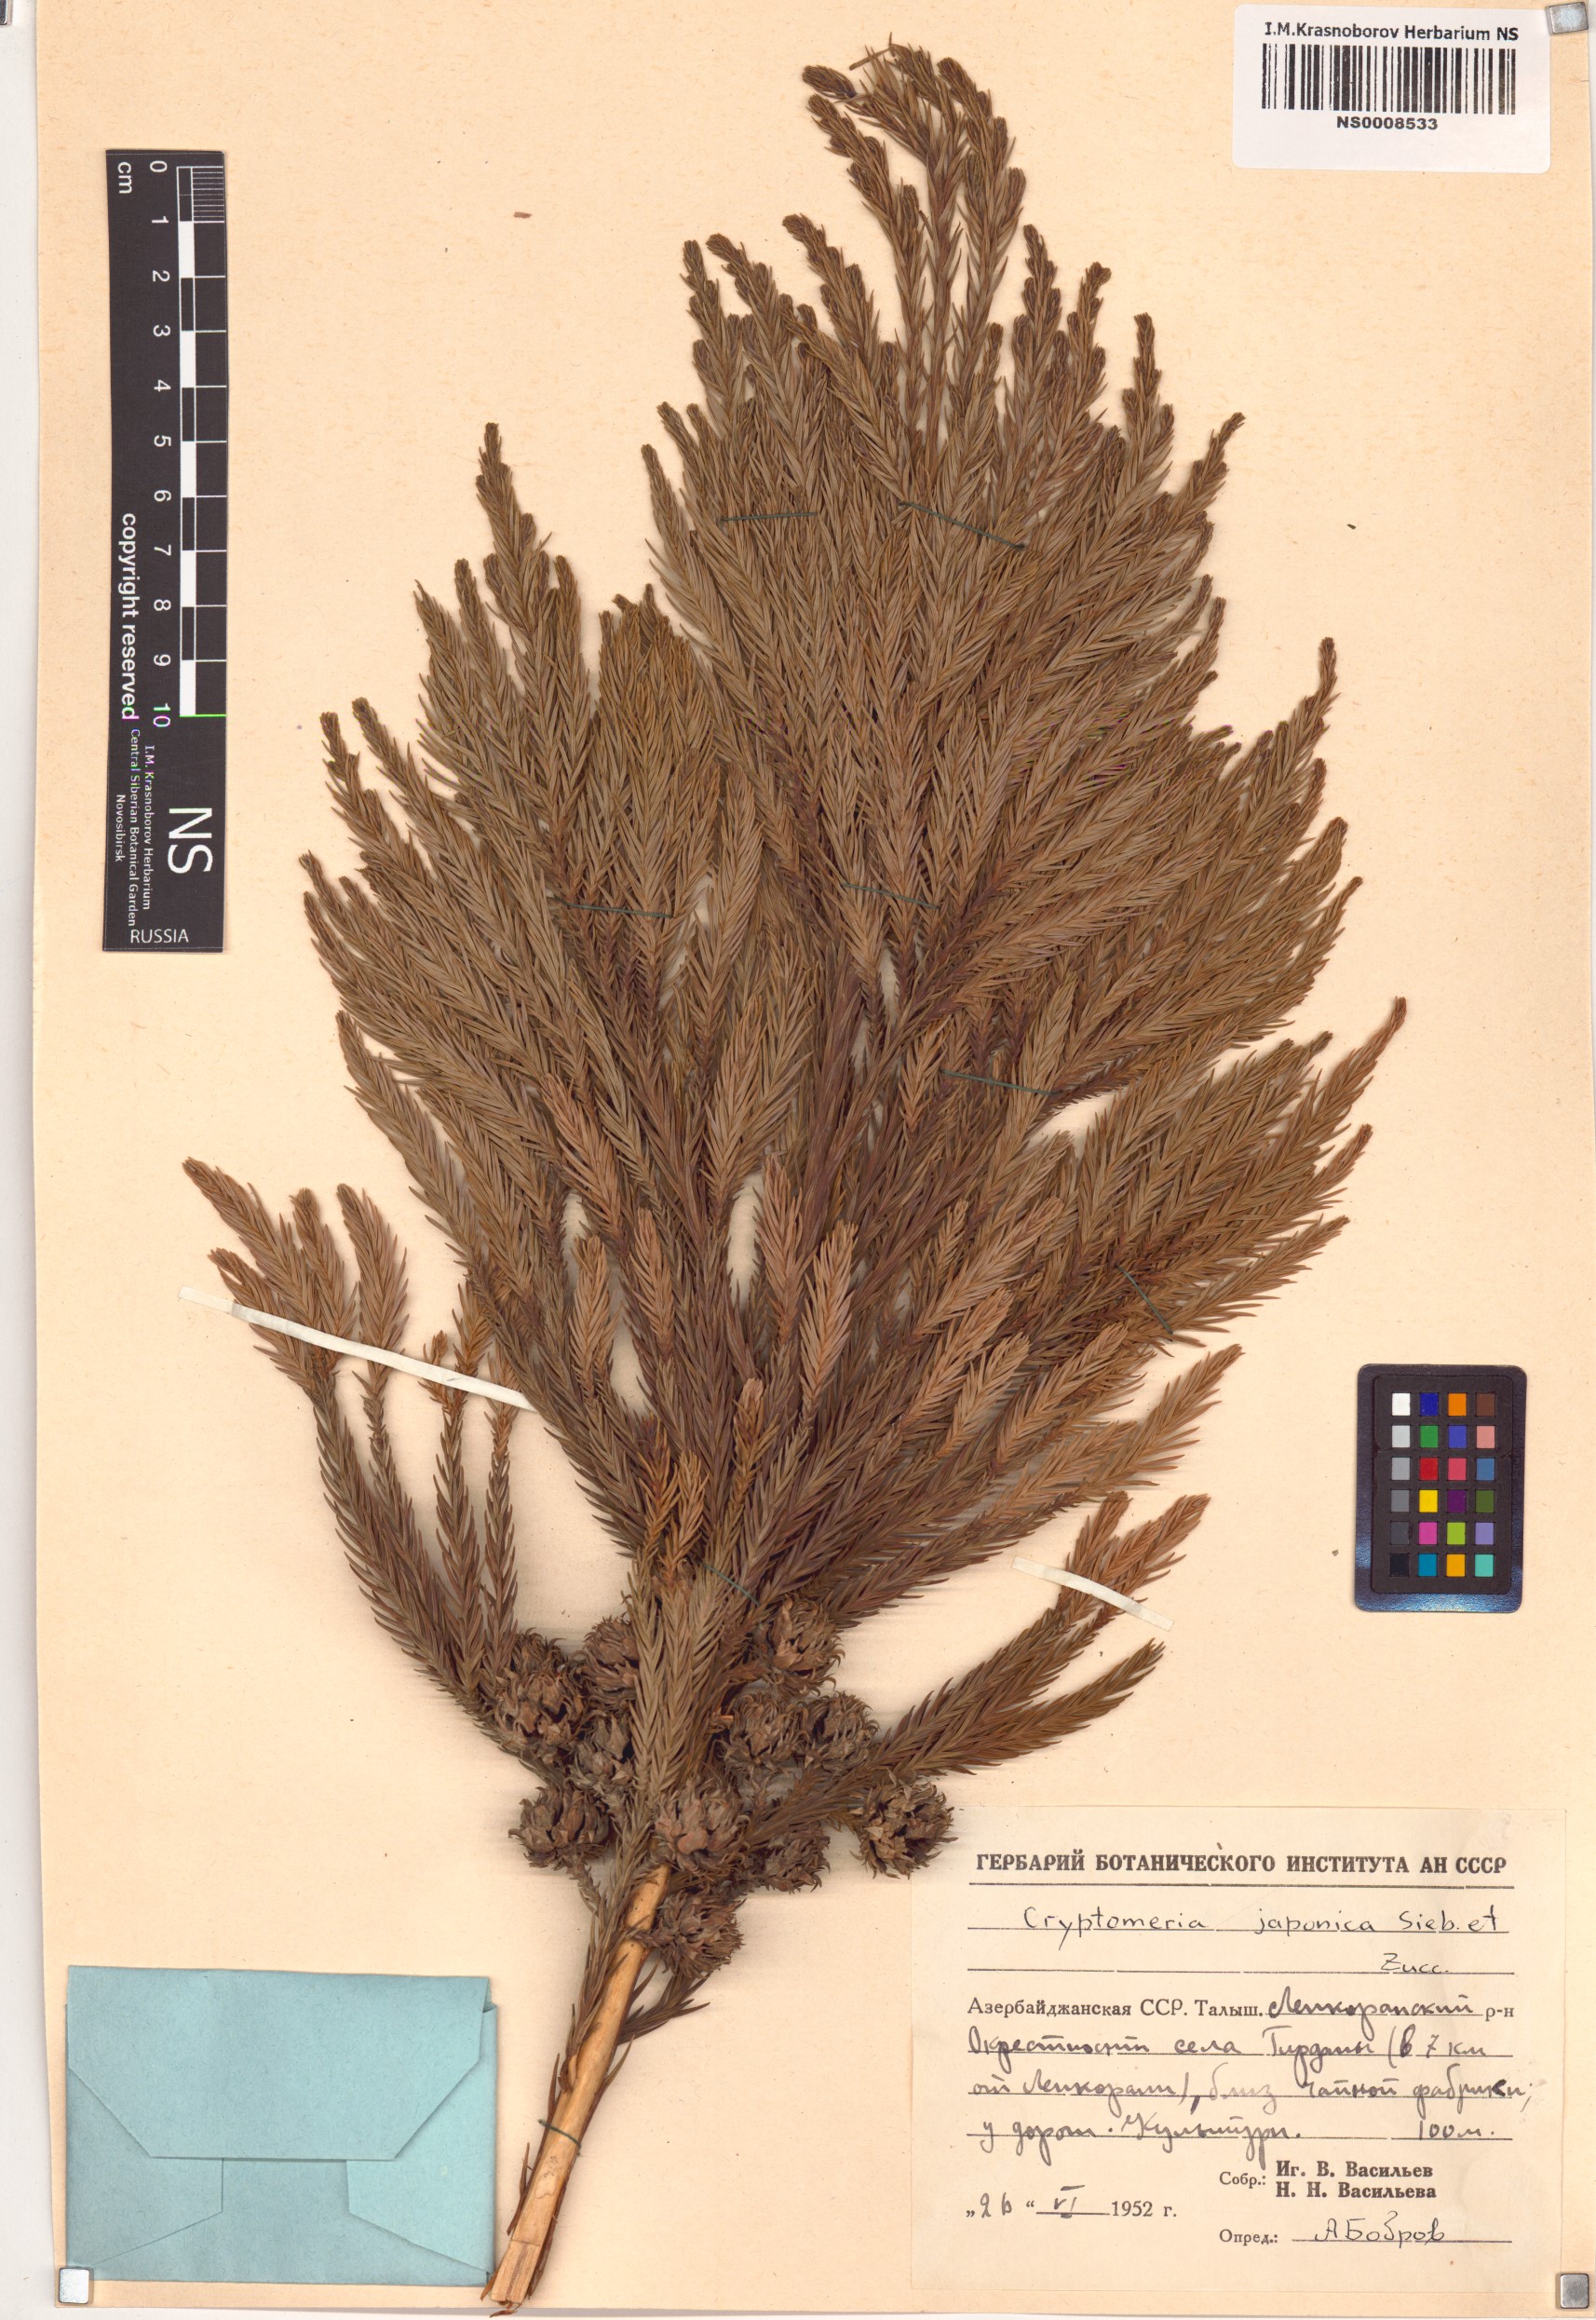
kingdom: Plantae
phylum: Tracheophyta
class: Pinopsida
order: Pinales
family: Cupressaceae
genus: Cryptomeria
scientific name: Cryptomeria japonica
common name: Japanese cedar
